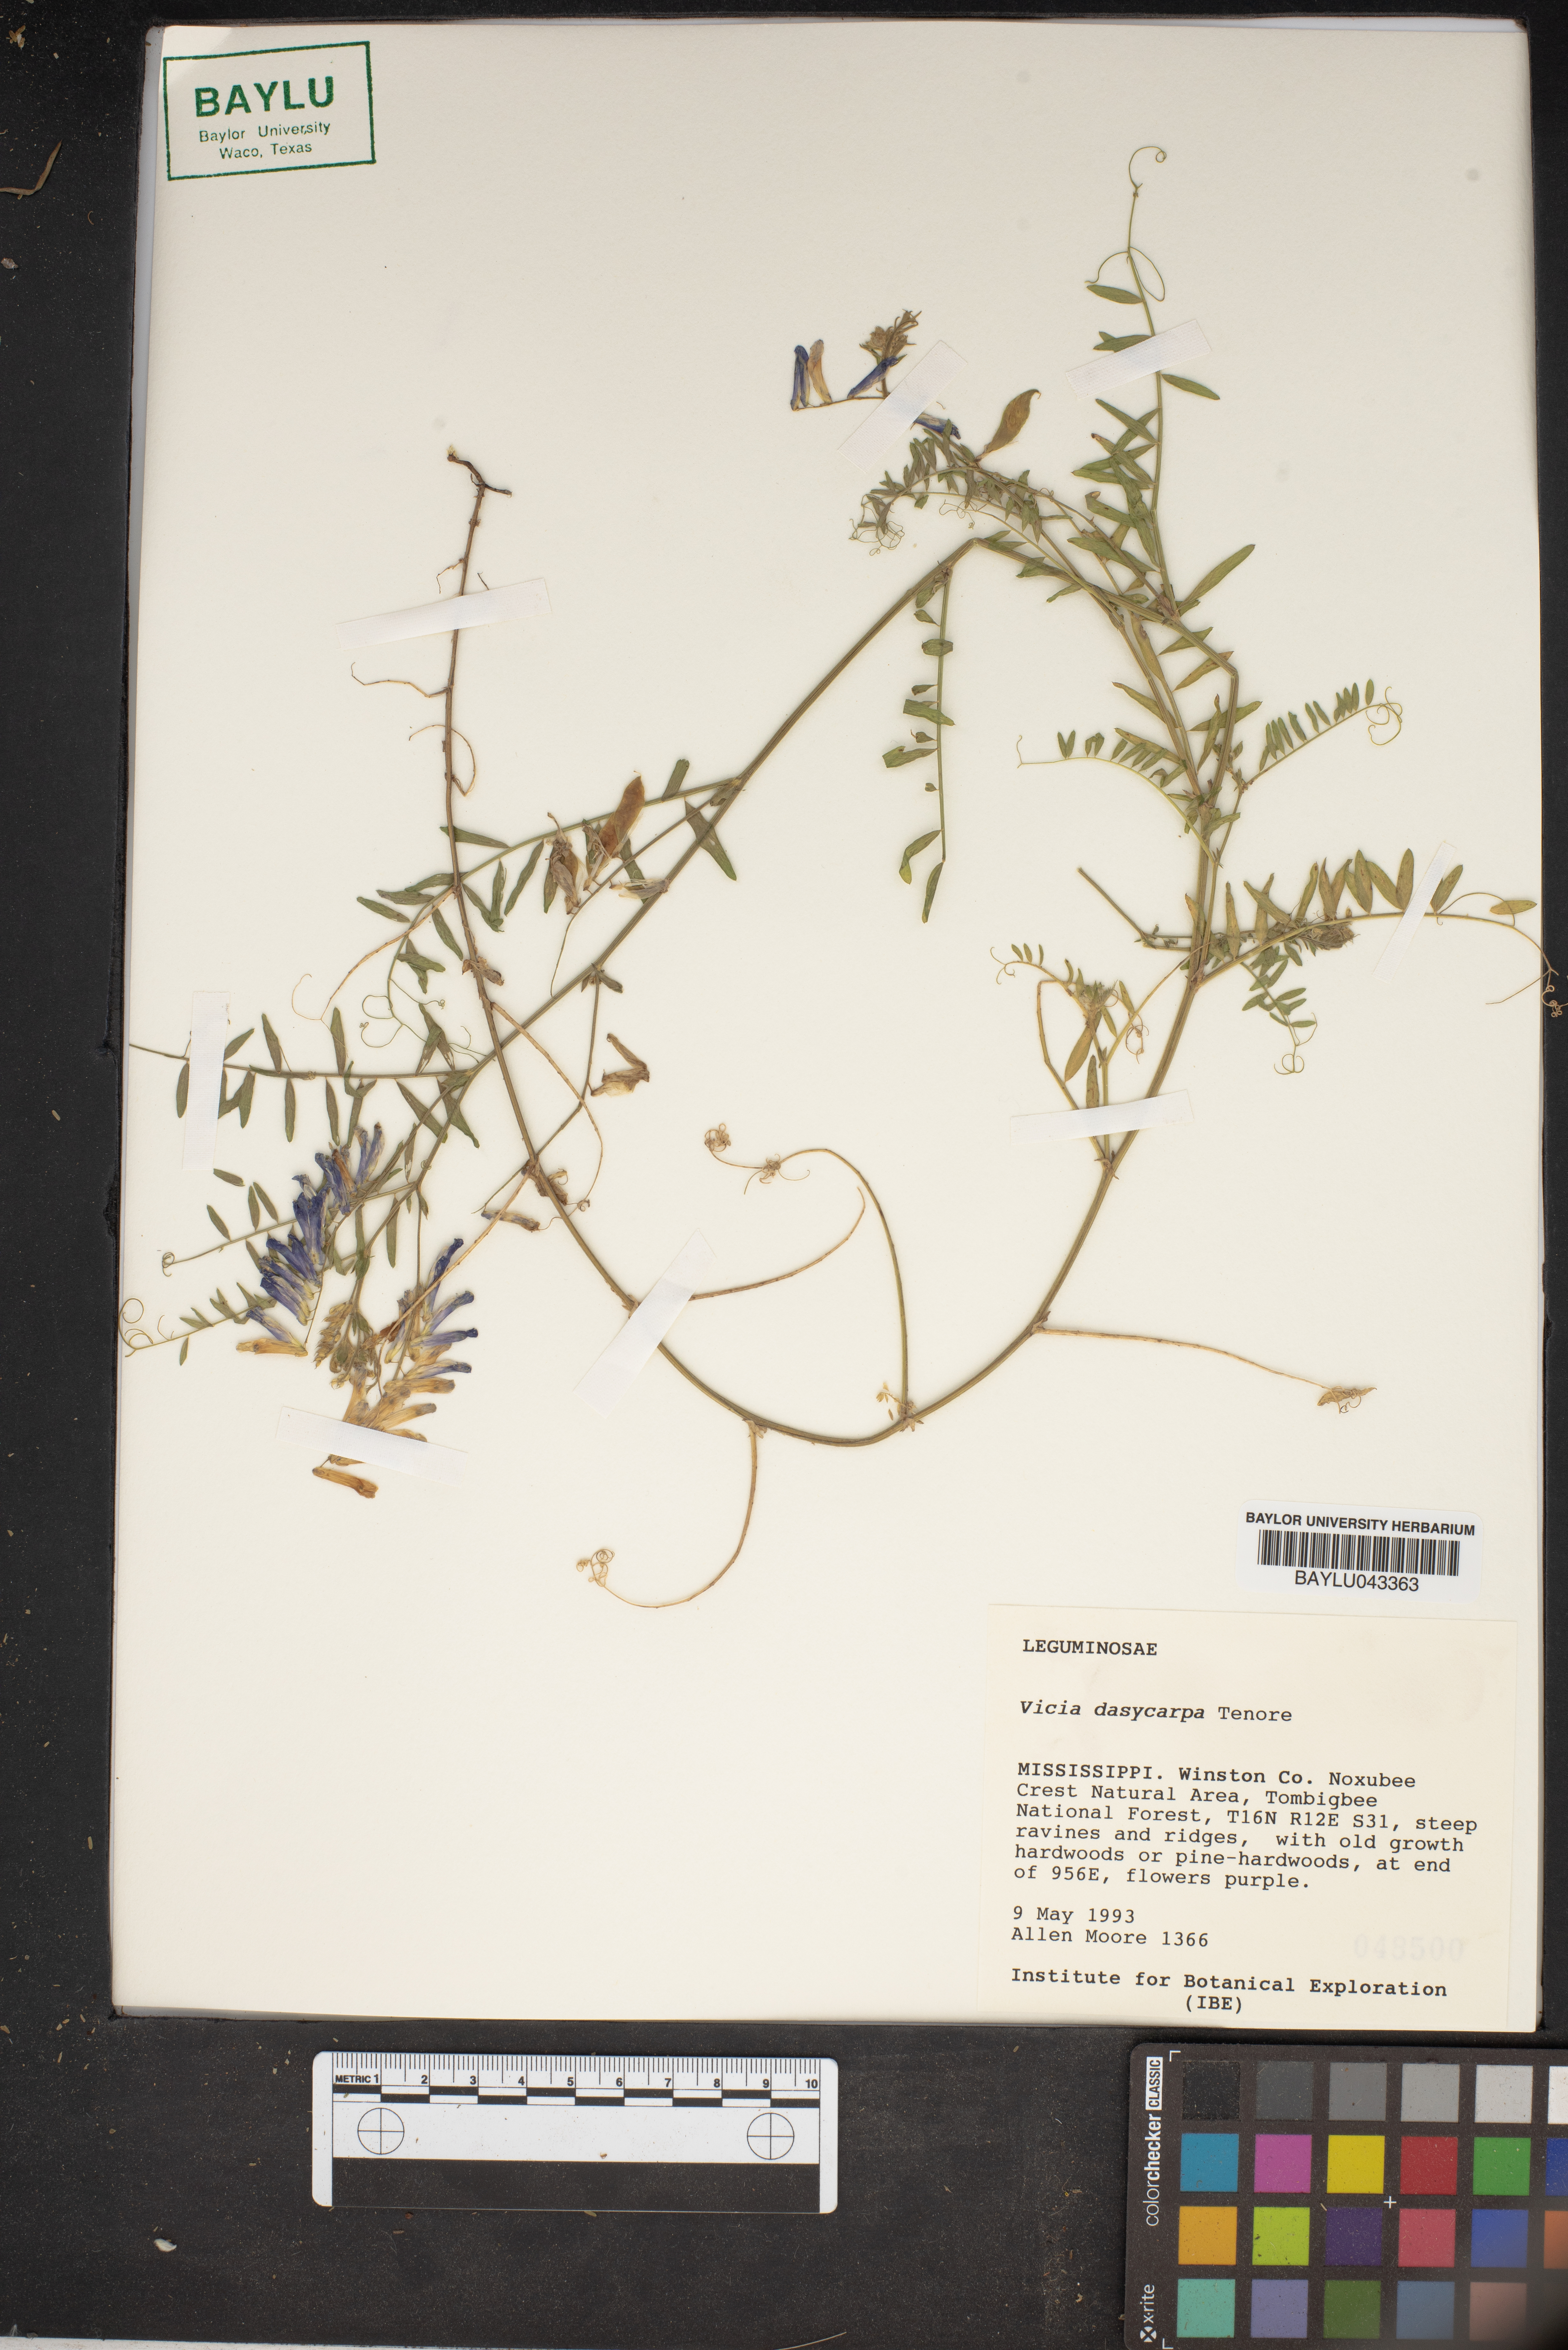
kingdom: Plantae
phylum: Tracheophyta
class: Magnoliopsida
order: Fabales
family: Fabaceae
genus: Vicia
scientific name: Vicia villosa
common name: Fodder vetch
